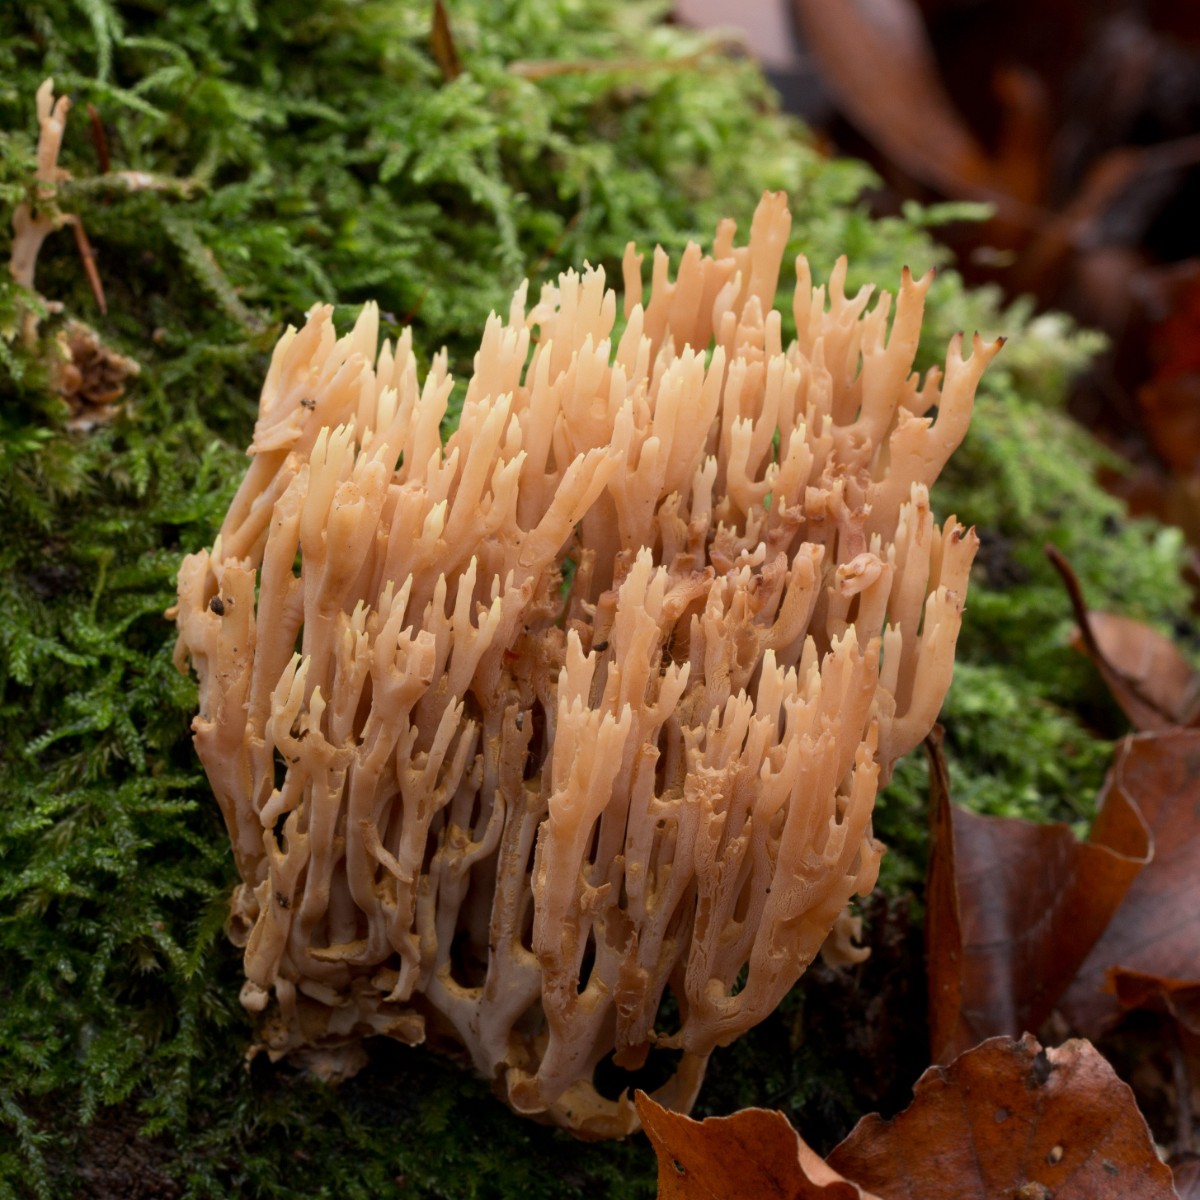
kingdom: Fungi
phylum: Basidiomycota
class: Agaricomycetes
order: Gomphales
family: Gomphaceae
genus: Ramaria
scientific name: Ramaria stricta
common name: rank koralsvamp
